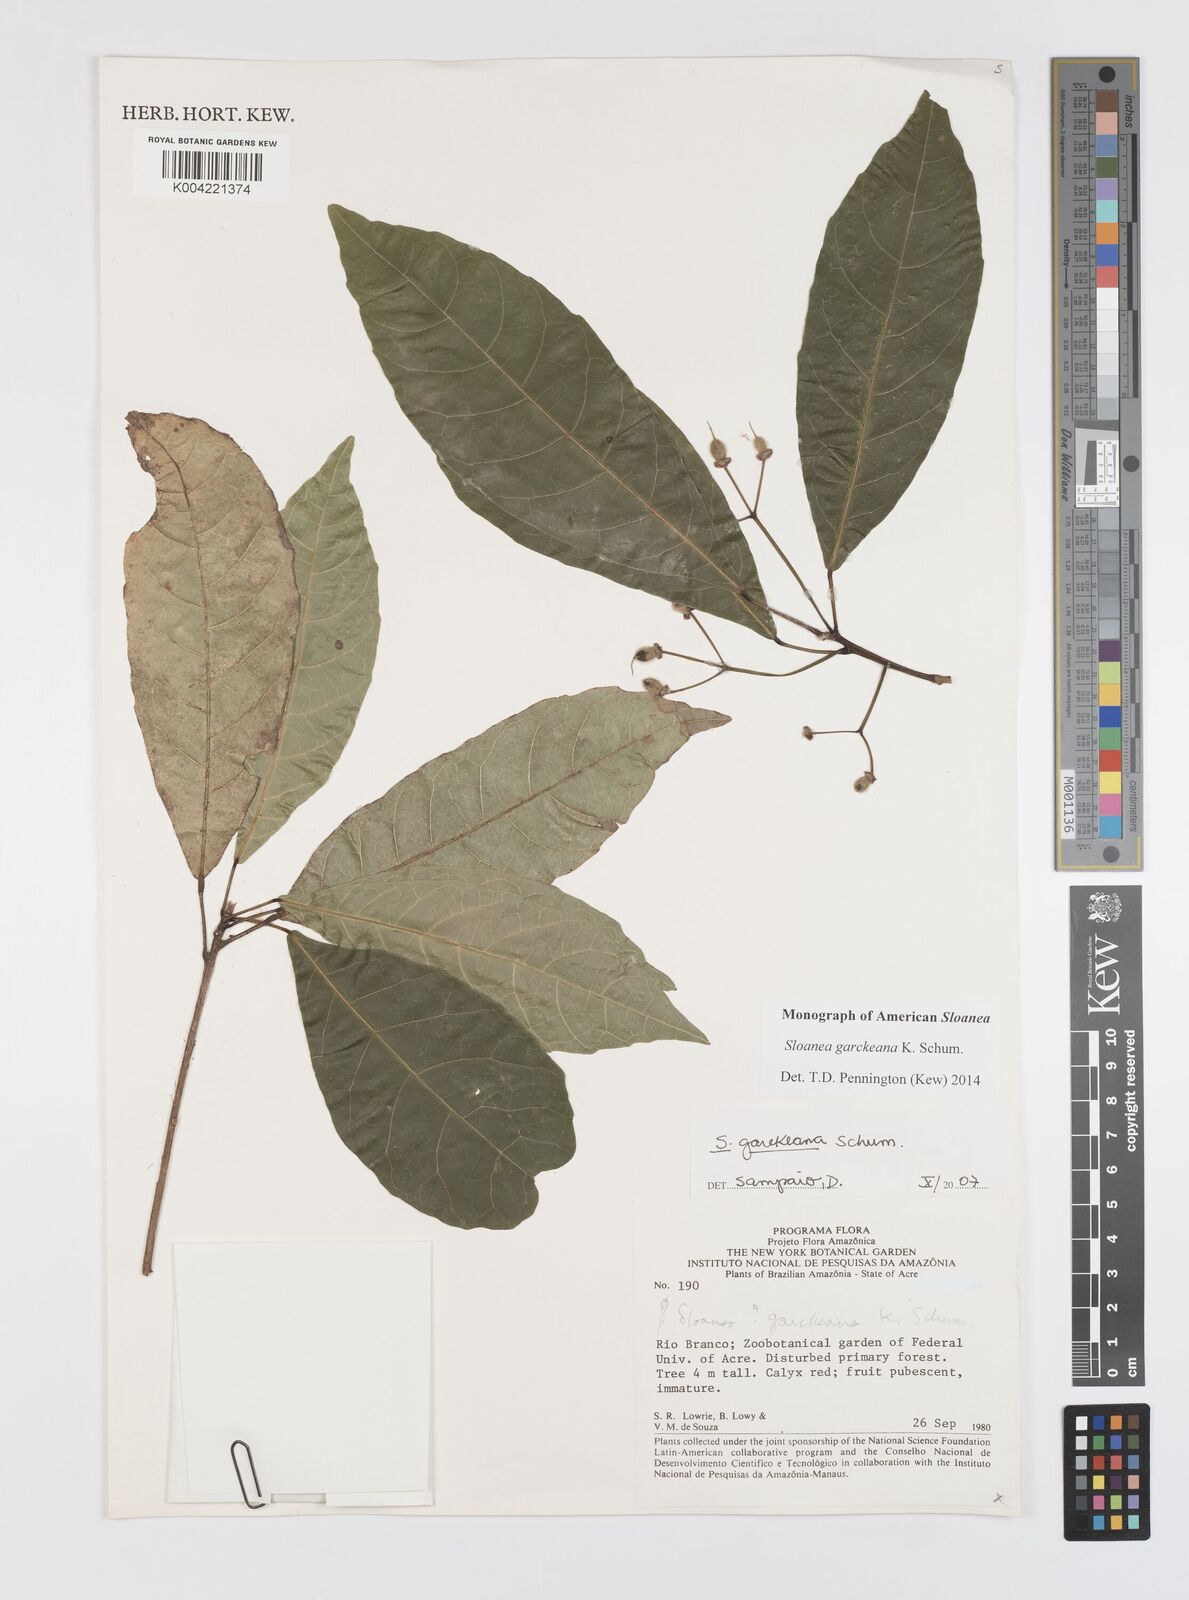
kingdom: Plantae
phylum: Tracheophyta
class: Magnoliopsida
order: Oxalidales
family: Elaeocarpaceae
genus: Sloanea
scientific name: Sloanea garckeana
